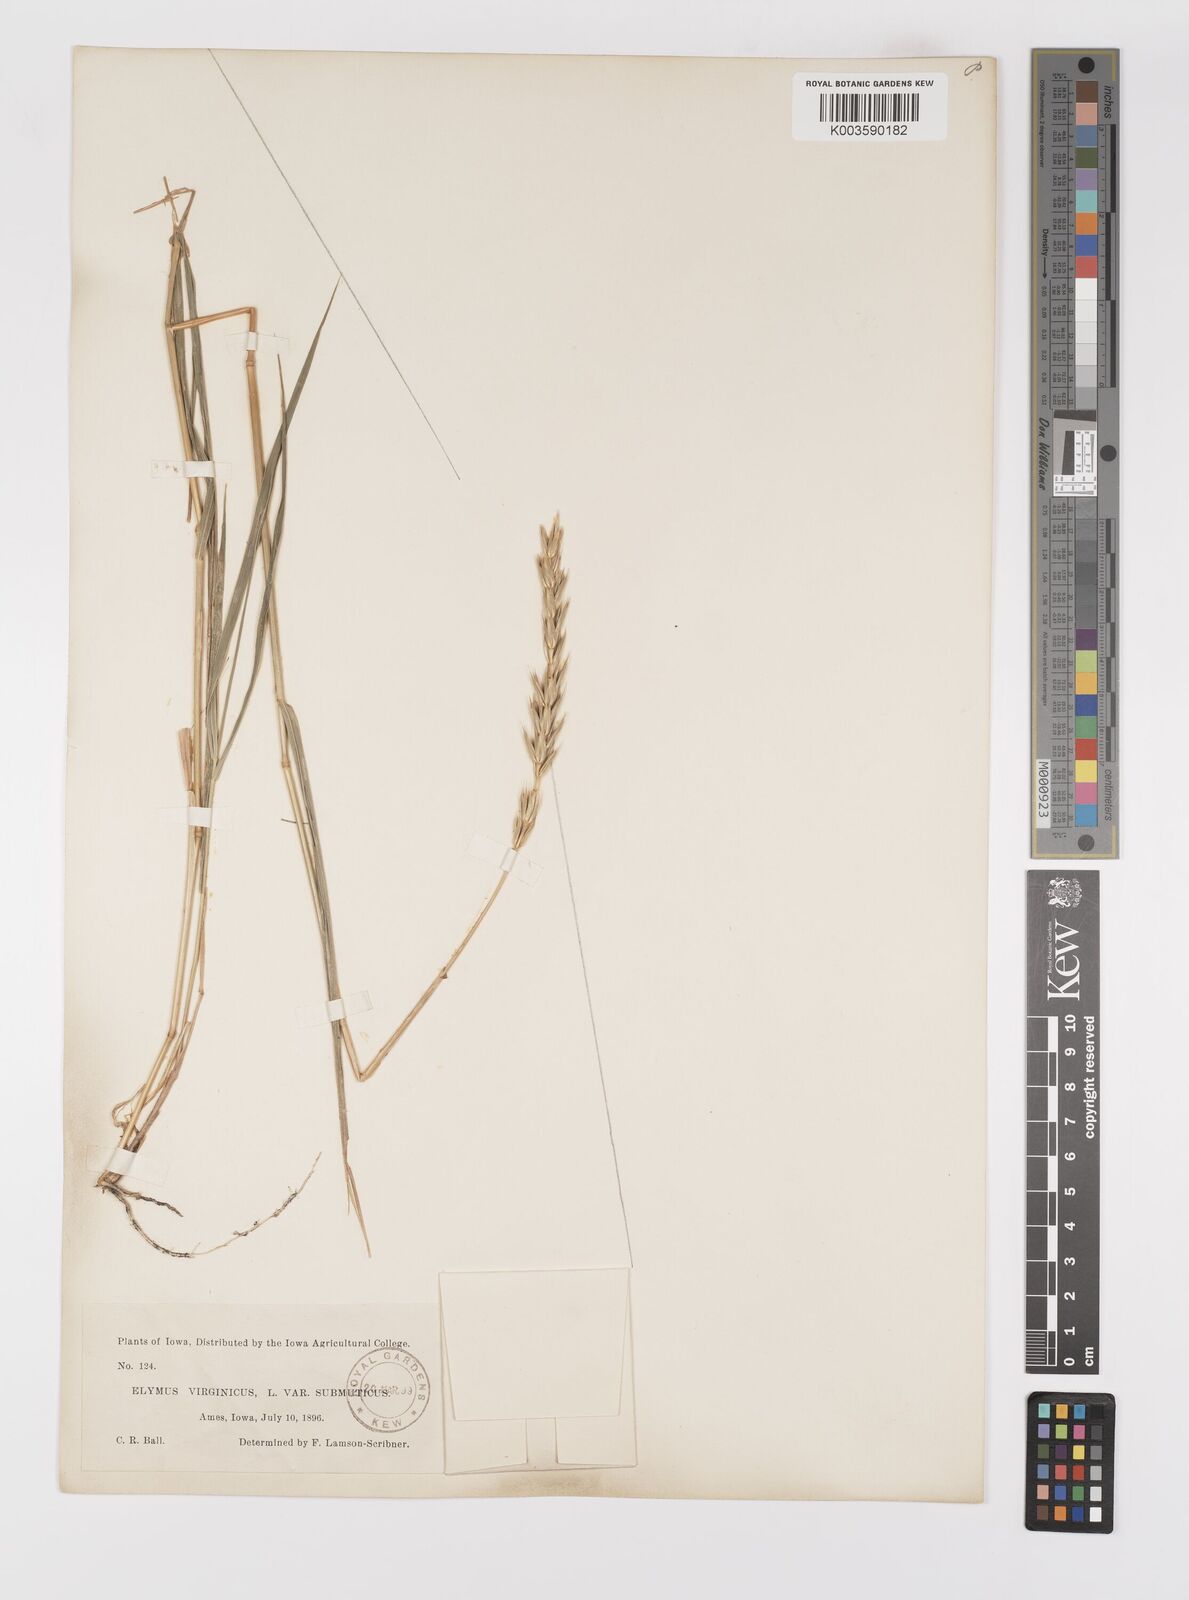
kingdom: Plantae
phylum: Tracheophyta
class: Liliopsida
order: Poales
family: Poaceae
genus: Elymus
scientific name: Elymus curvatus
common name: Awnless wild rye
